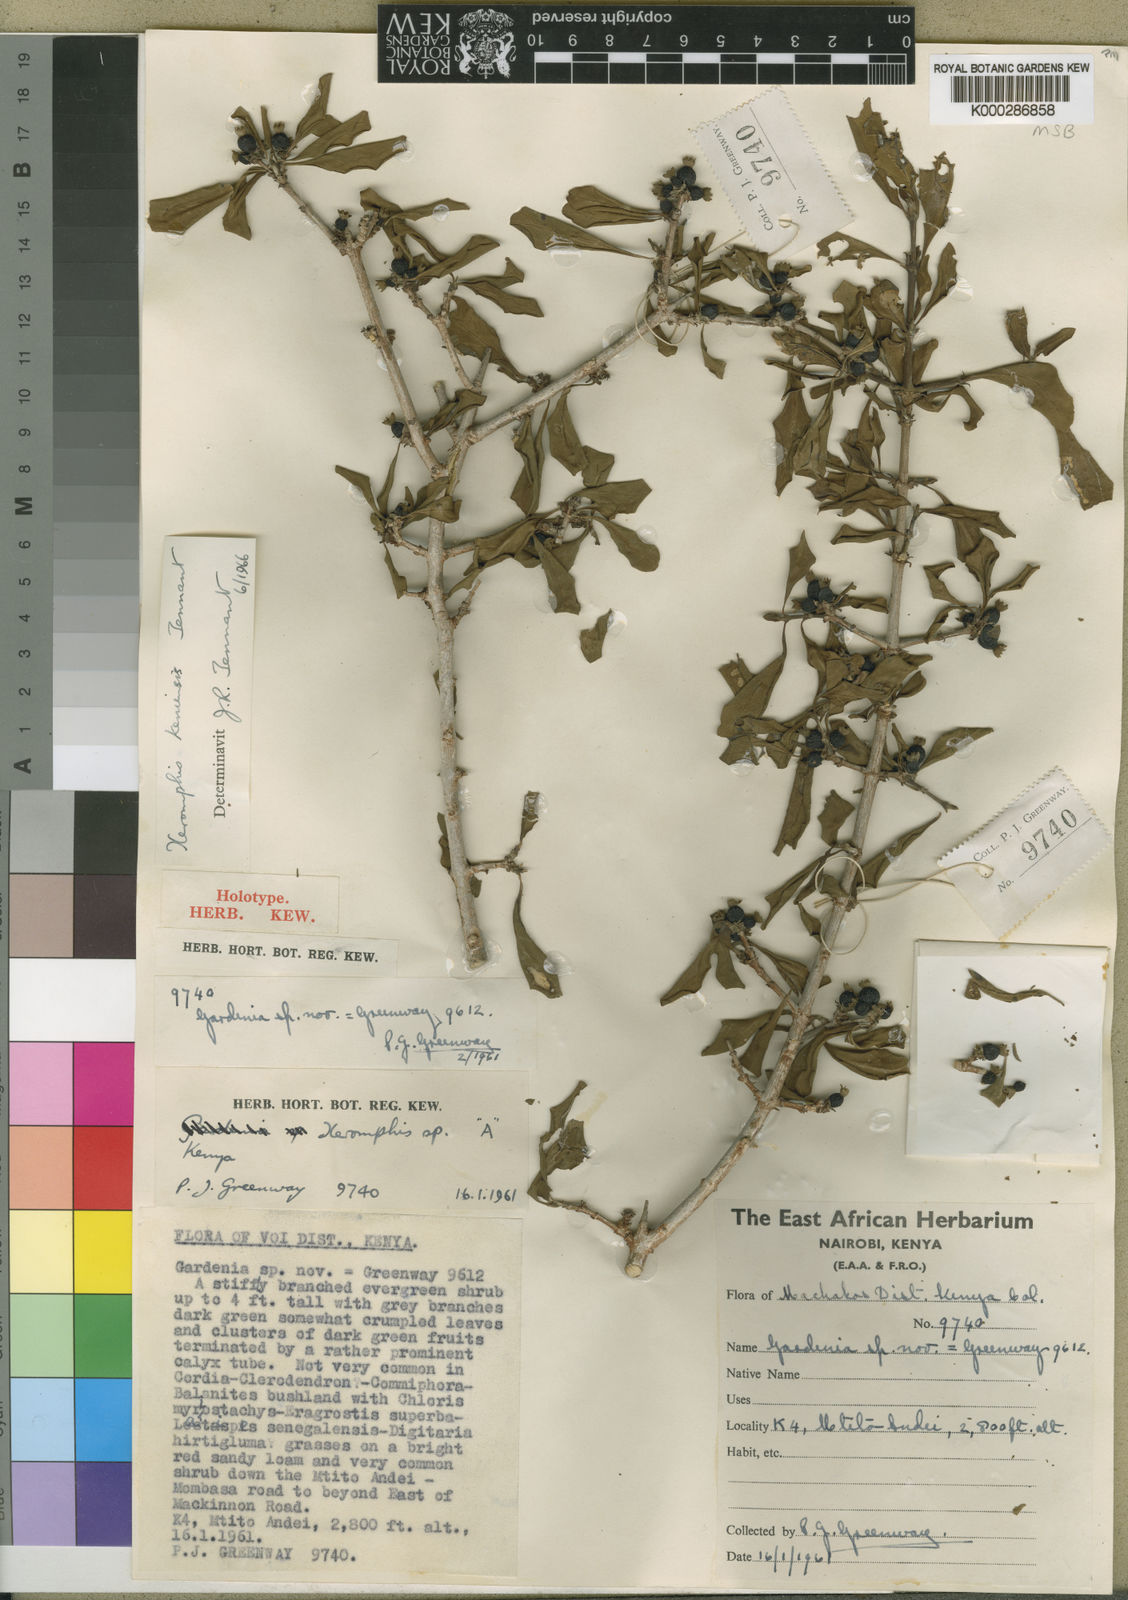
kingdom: Plantae
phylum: Tracheophyta
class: Magnoliopsida
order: Gentianales
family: Rubiaceae
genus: Tennantia
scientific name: Tennantia sennii
